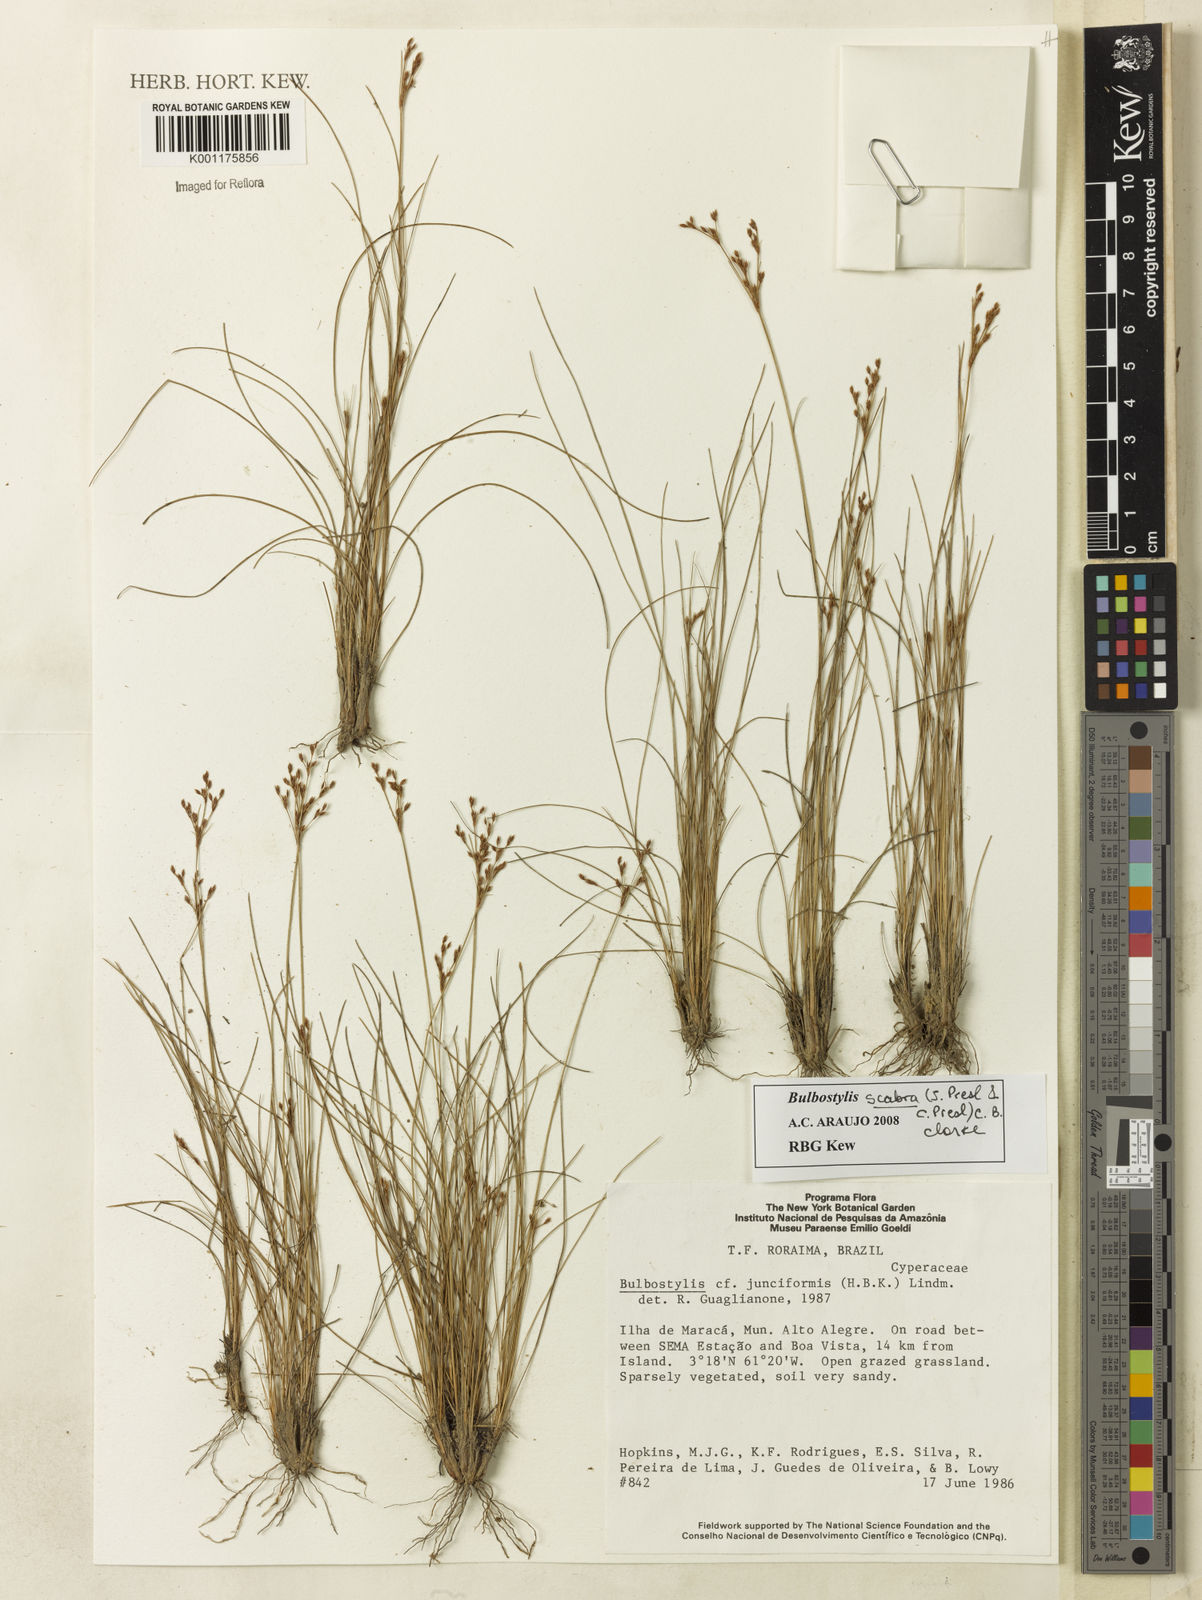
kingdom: Plantae
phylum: Tracheophyta
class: Liliopsida
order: Poales
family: Cyperaceae
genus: Bulbostylis
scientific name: Bulbostylis scabra
